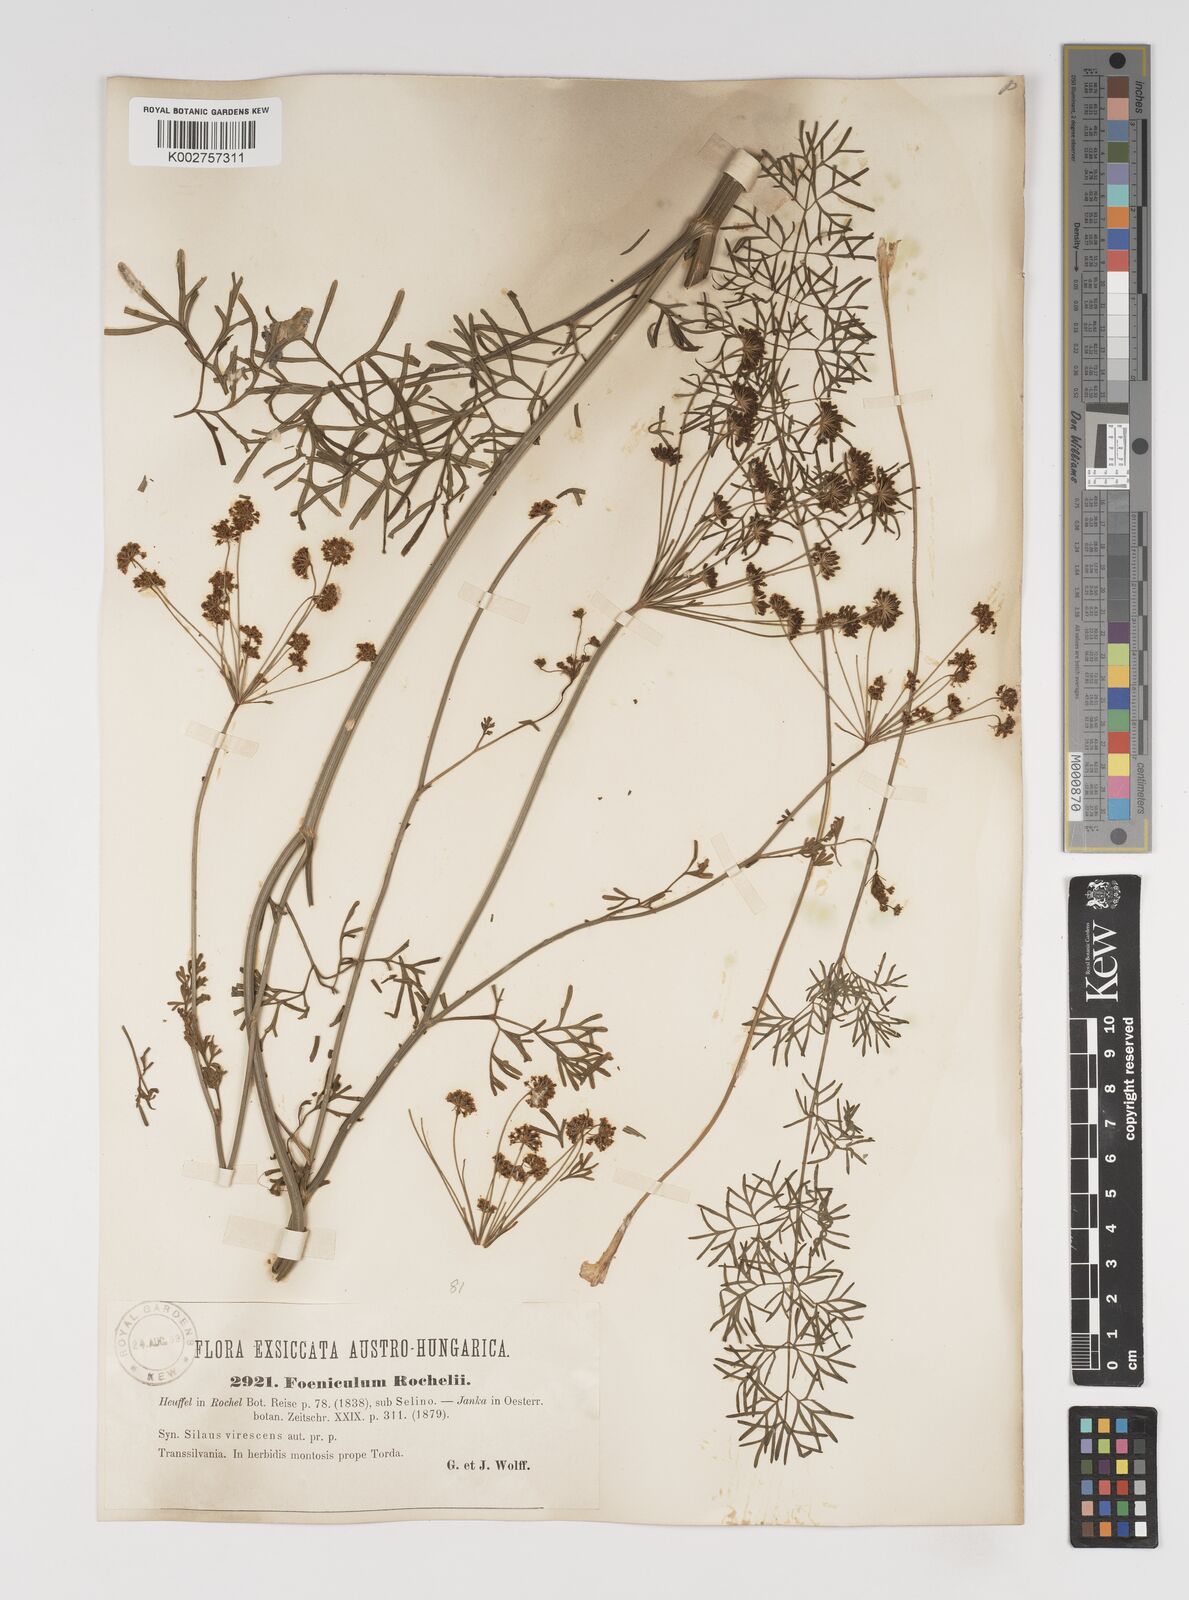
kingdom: Plantae
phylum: Tracheophyta
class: Magnoliopsida
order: Apiales
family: Apiaceae
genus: Gasparinia
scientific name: Gasparinia peucedanoides
